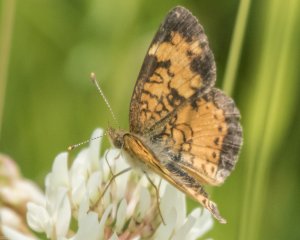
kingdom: Animalia
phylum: Arthropoda
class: Insecta
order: Lepidoptera
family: Nymphalidae
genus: Phyciodes
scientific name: Phyciodes tharos
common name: Northern Crescent
